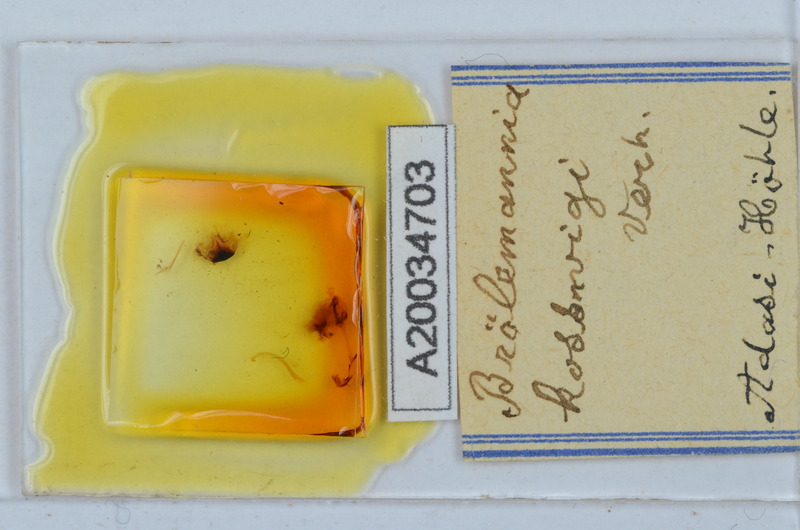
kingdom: Animalia
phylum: Arthropoda
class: Diplopoda
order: Callipodida
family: Schizopetalidae
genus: Eurygyrus
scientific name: Eurygyrus bilselii
